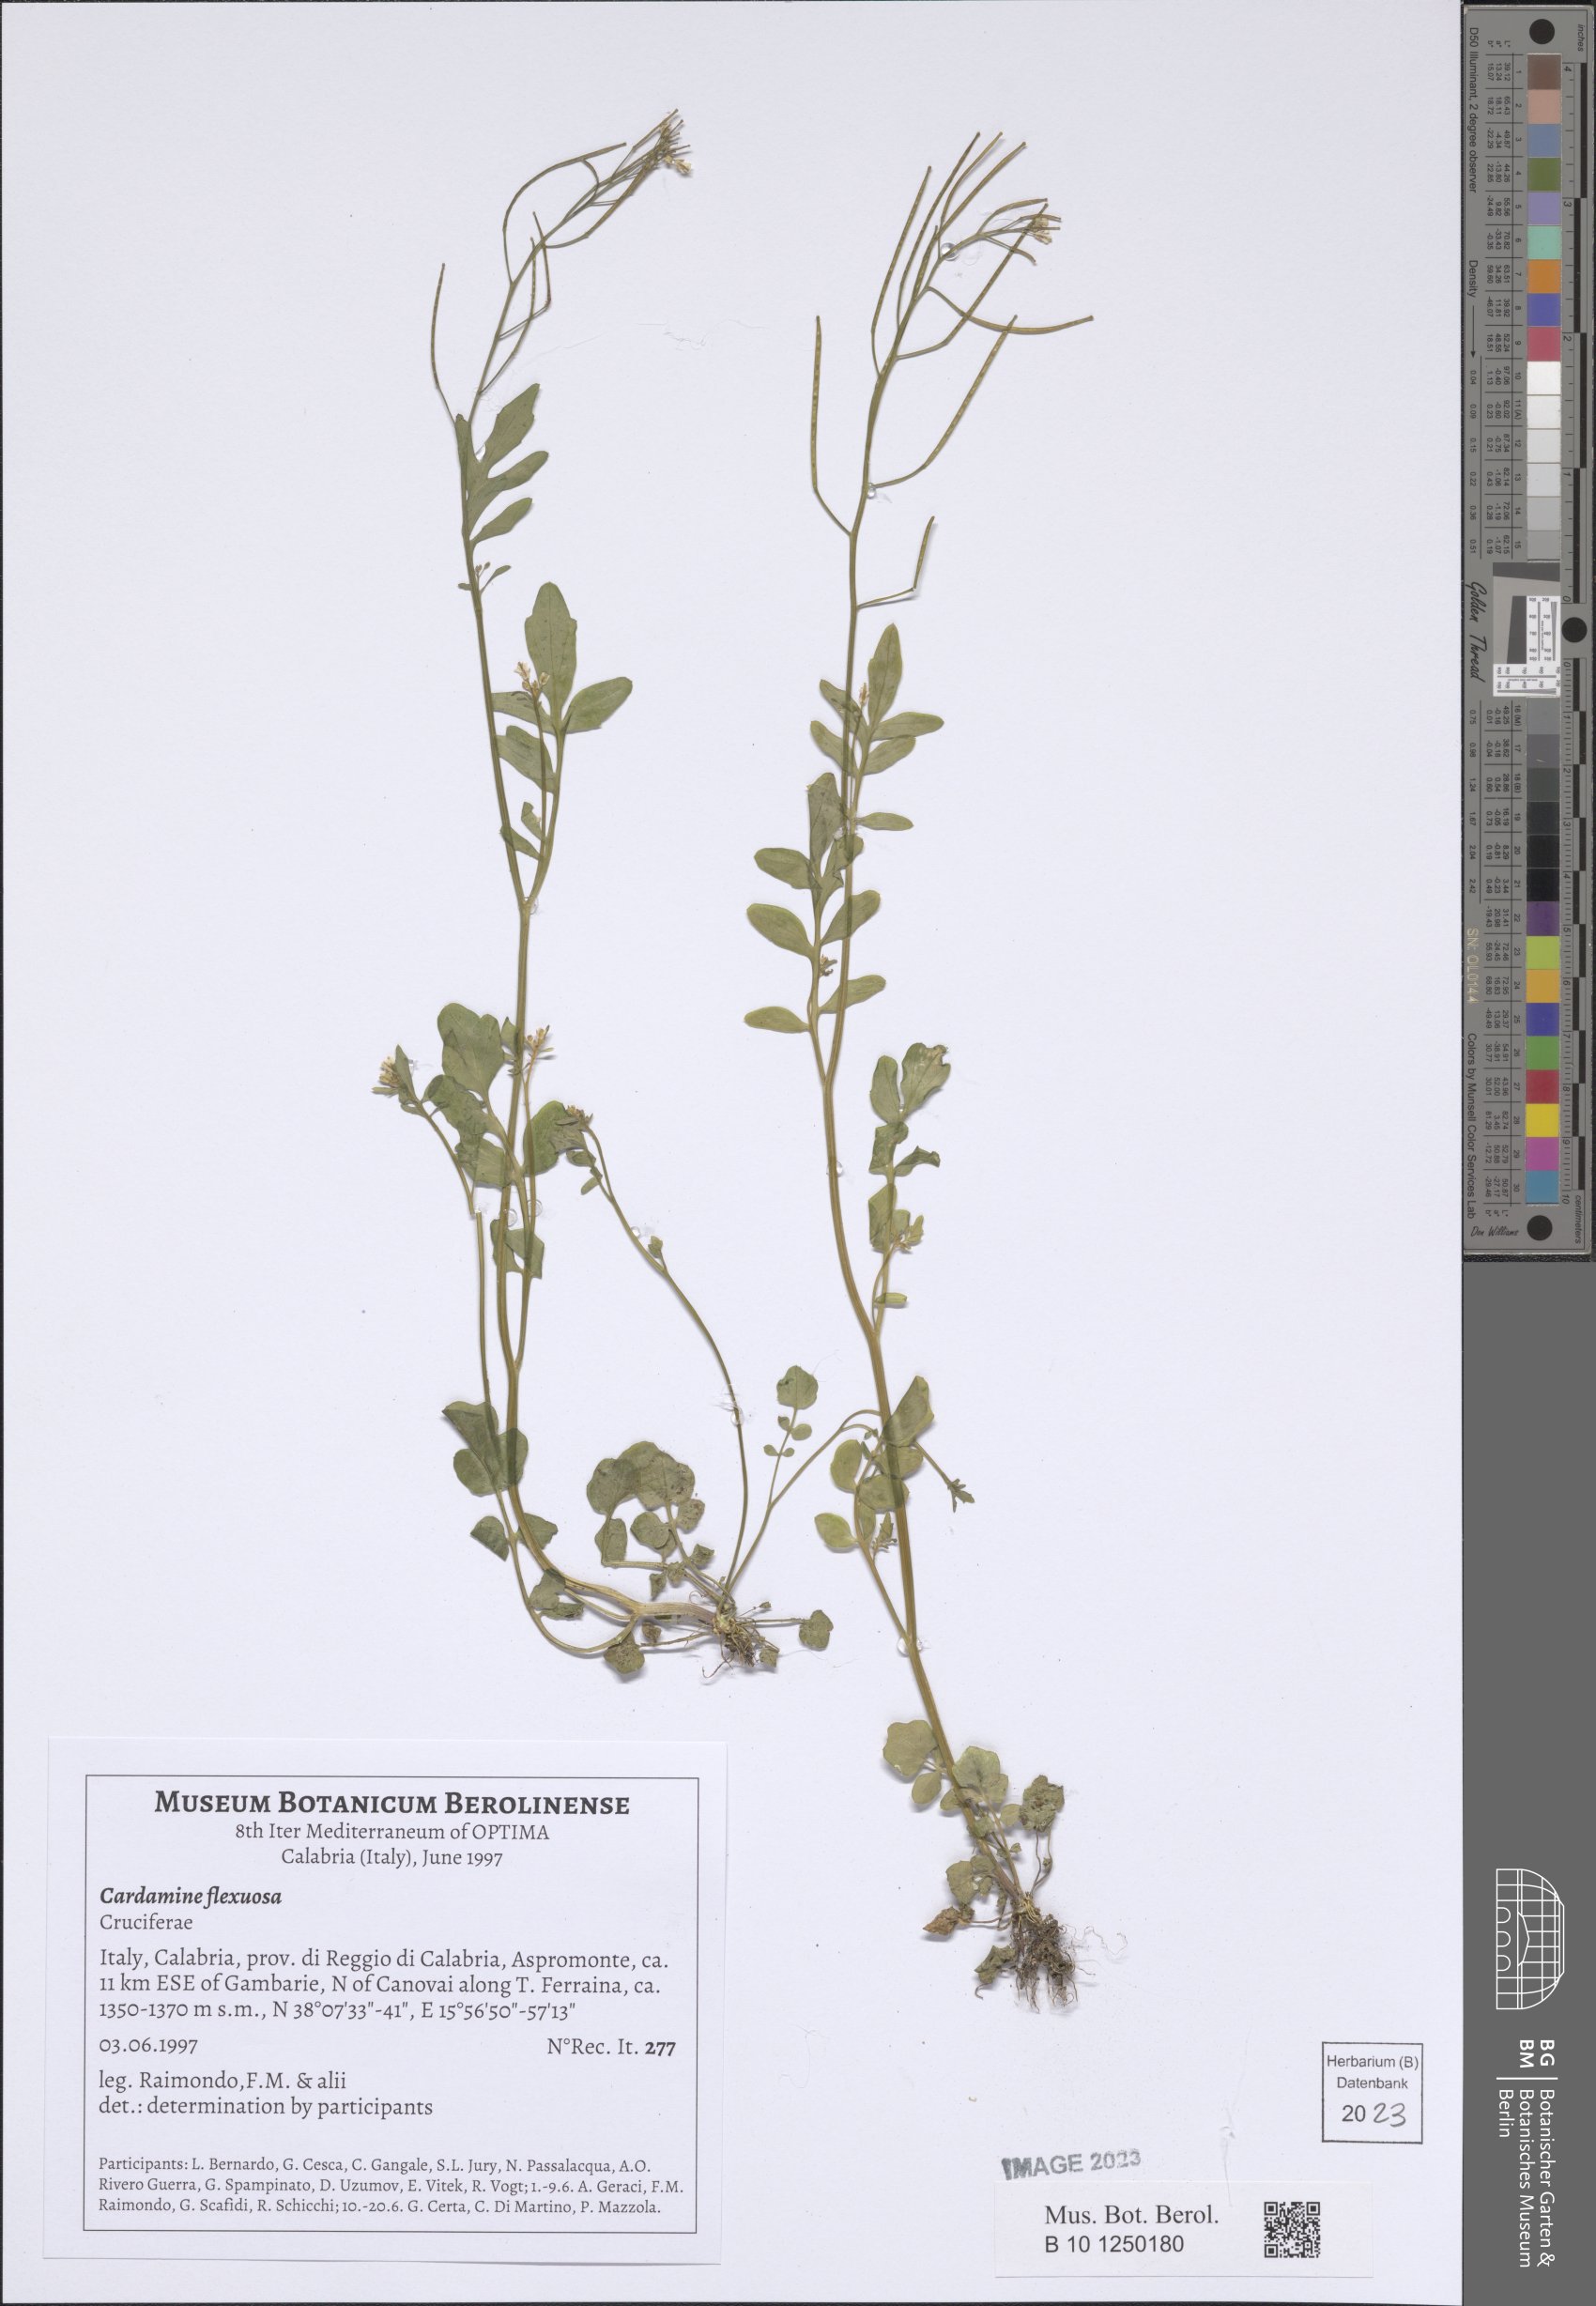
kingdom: Plantae
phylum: Tracheophyta
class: Magnoliopsida
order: Brassicales
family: Brassicaceae
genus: Cardamine
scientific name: Cardamine flexuosa
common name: Woodland bittercress
